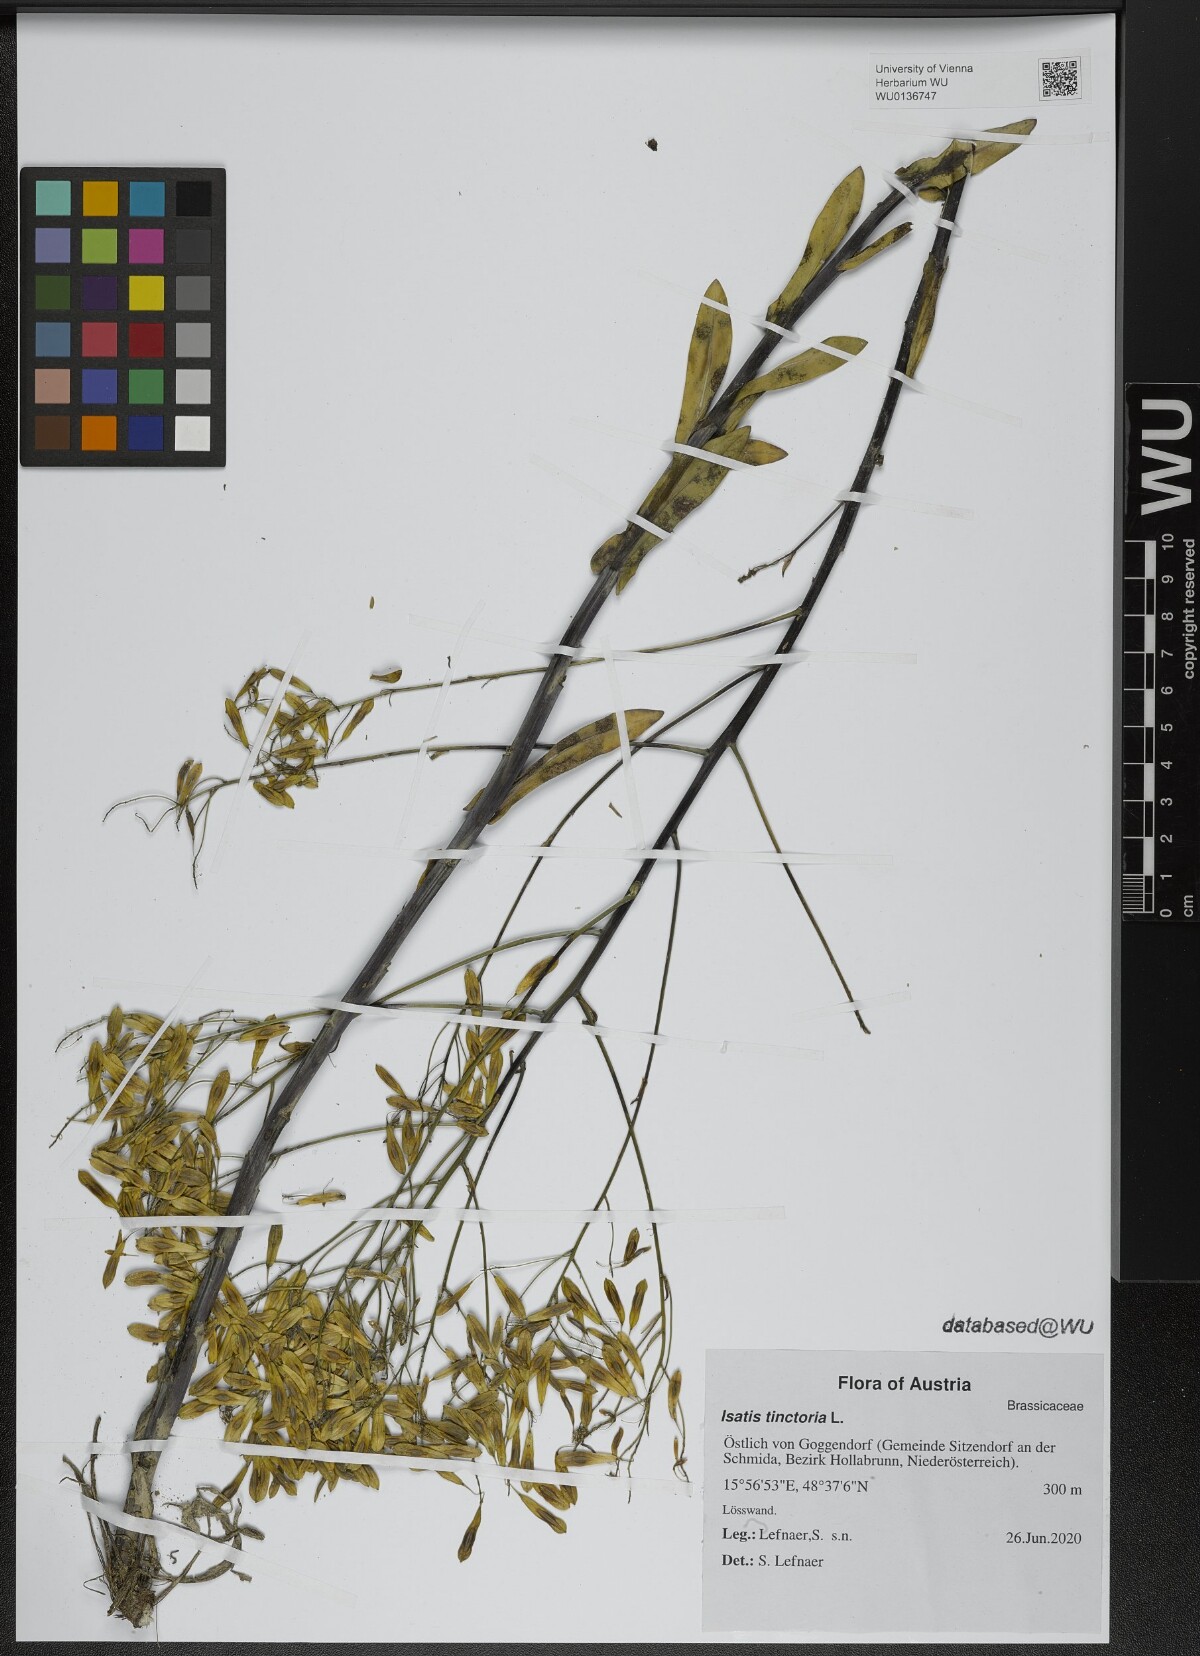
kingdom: Plantae
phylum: Tracheophyta
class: Magnoliopsida
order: Brassicales
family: Brassicaceae
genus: Isatis
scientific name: Isatis tinctoria
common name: Woad
